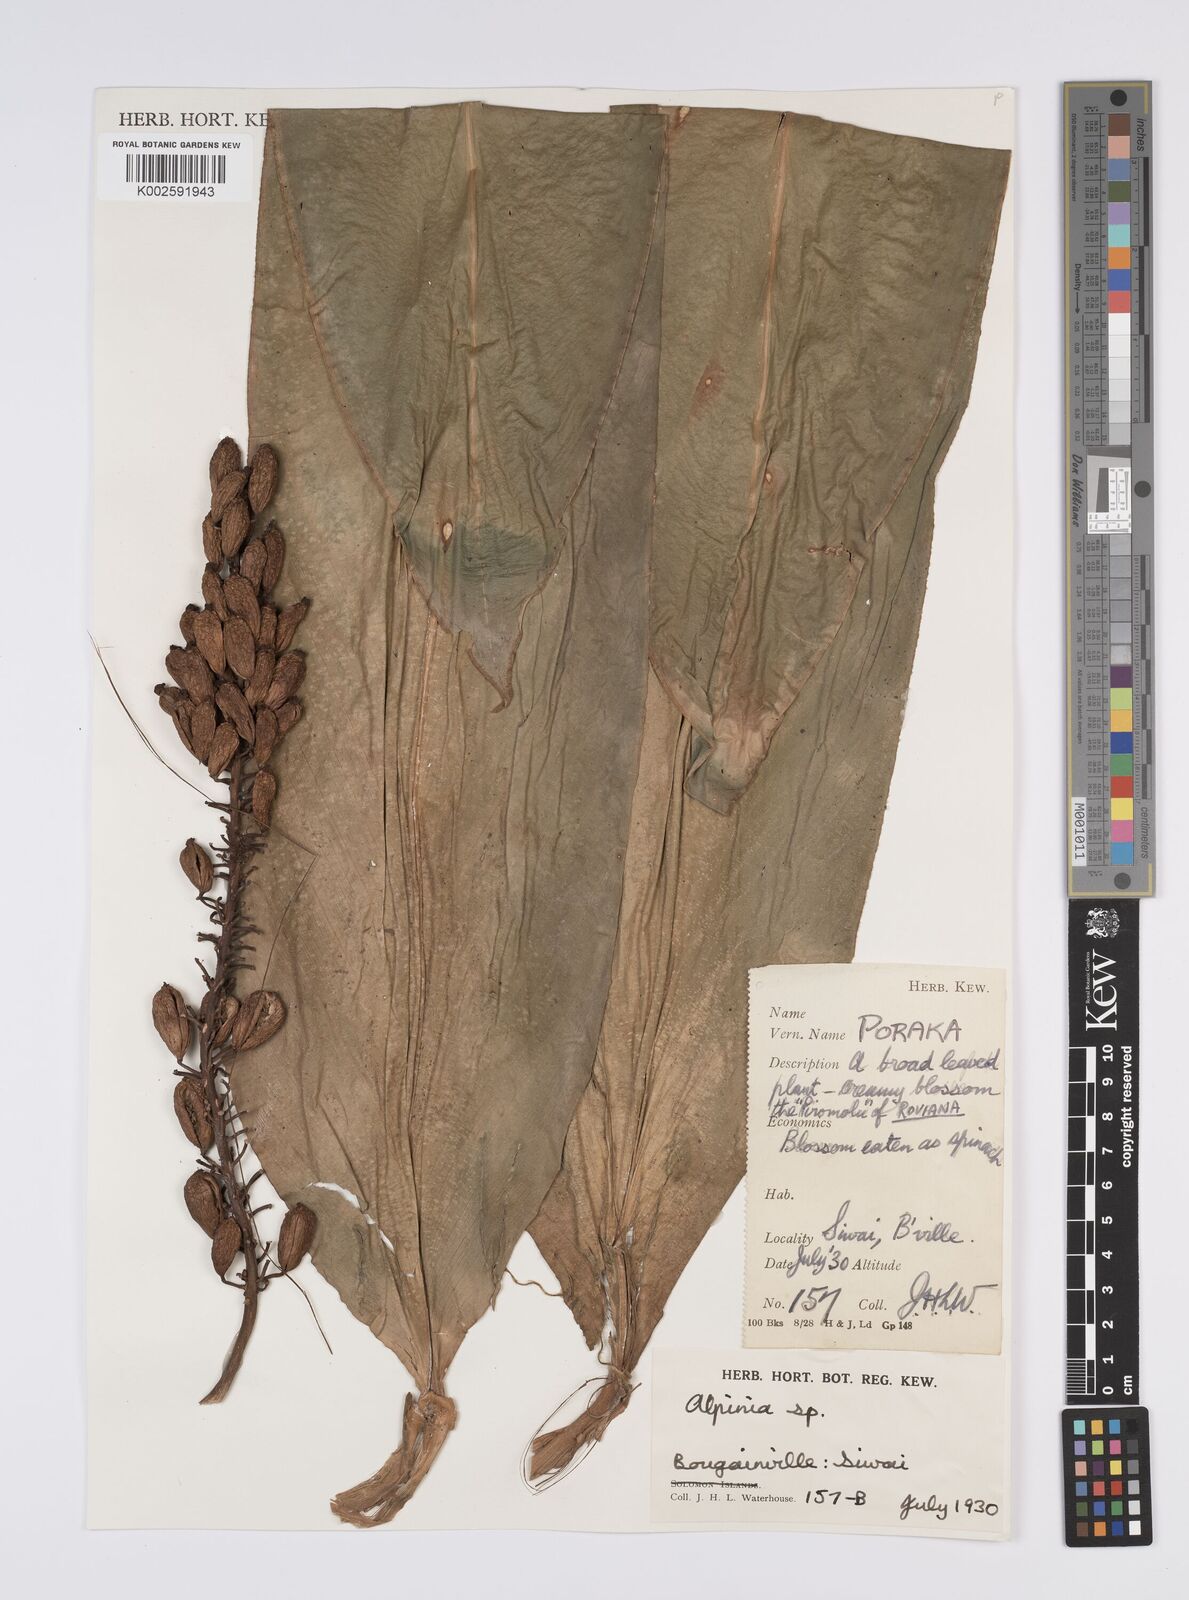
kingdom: Plantae
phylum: Tracheophyta
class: Liliopsida
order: Zingiberales
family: Zingiberaceae
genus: Alpinia
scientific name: Alpinia
